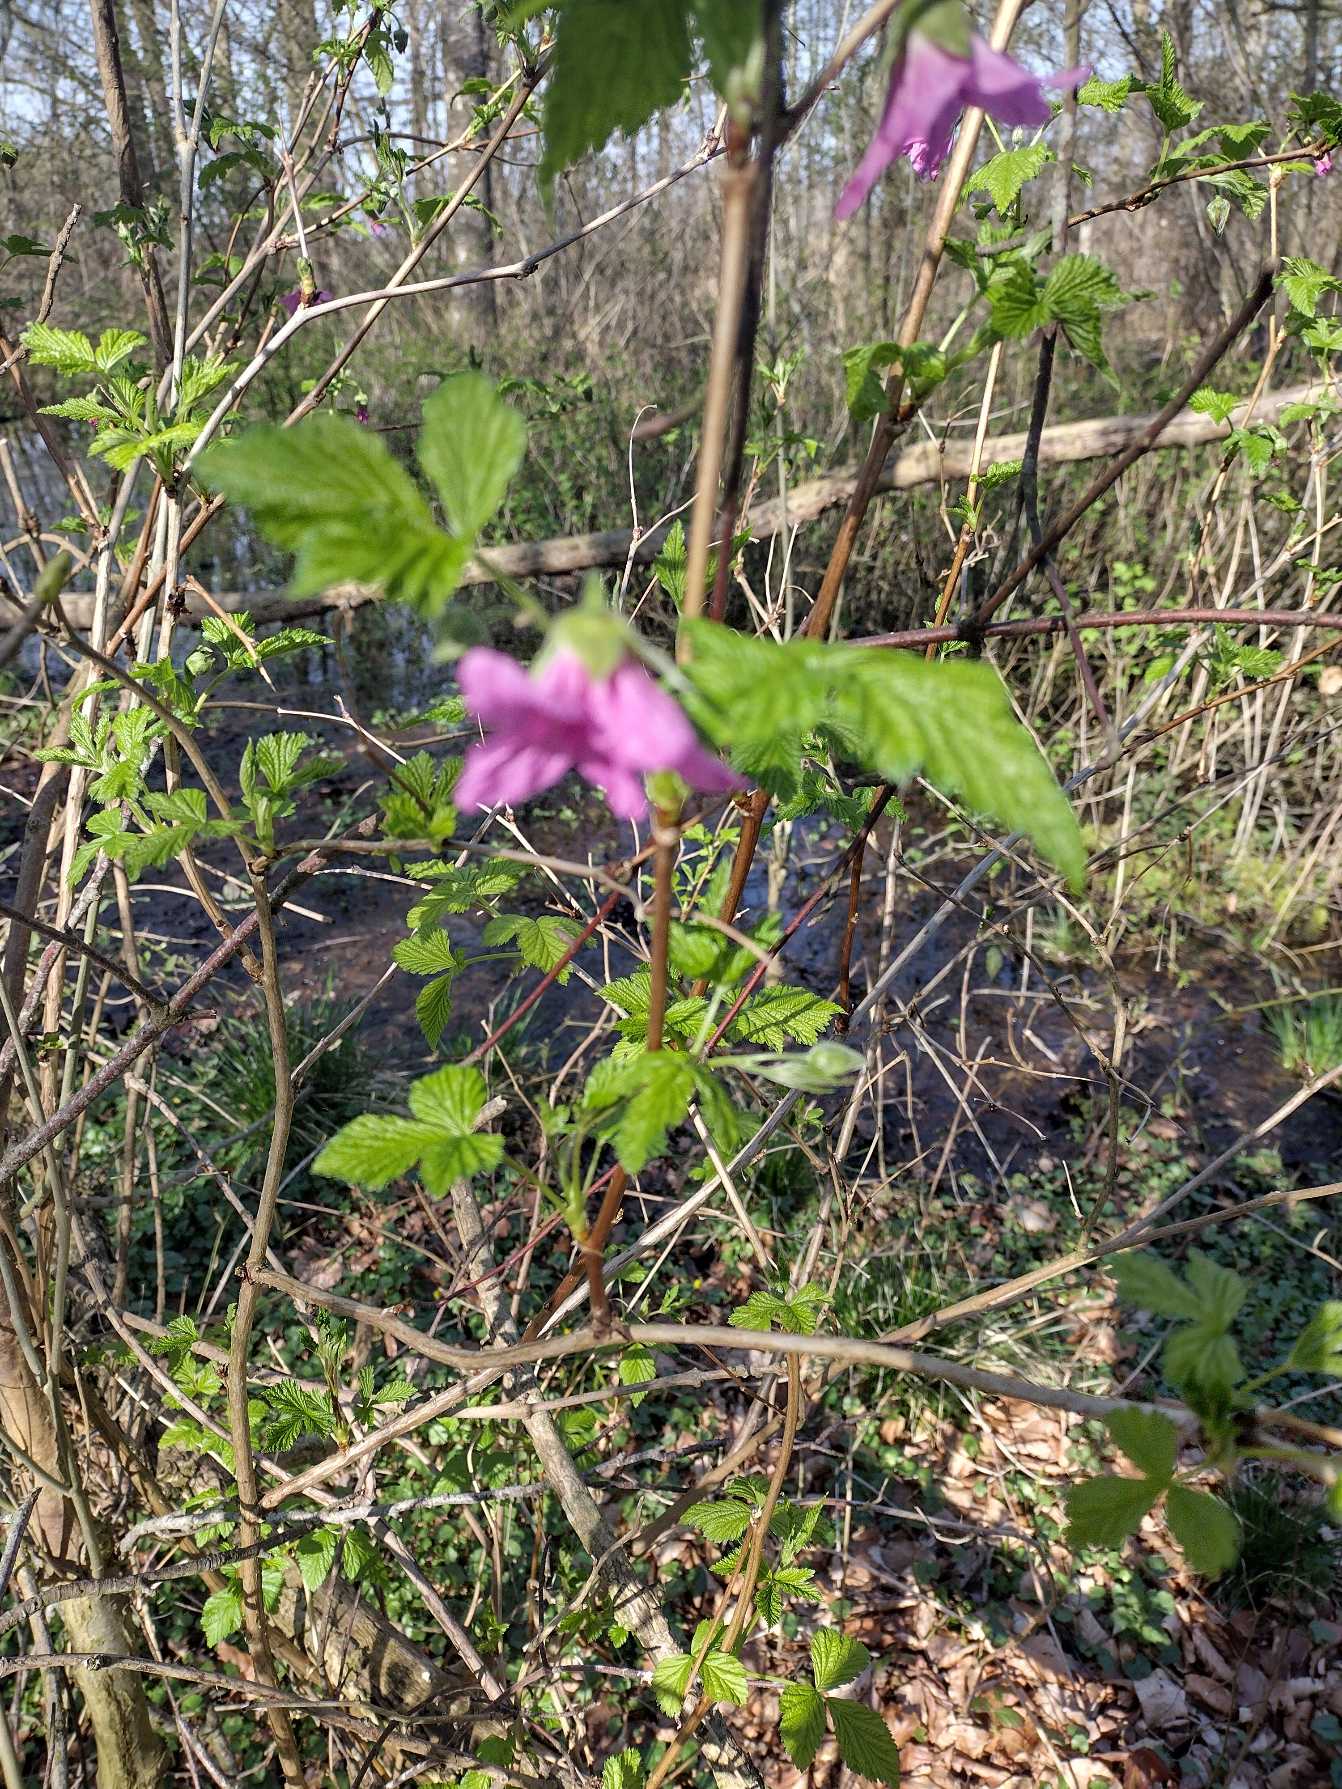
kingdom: Plantae
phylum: Tracheophyta
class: Magnoliopsida
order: Rosales
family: Rosaceae
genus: Rubus
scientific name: Rubus spectabilis
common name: Laksebær
